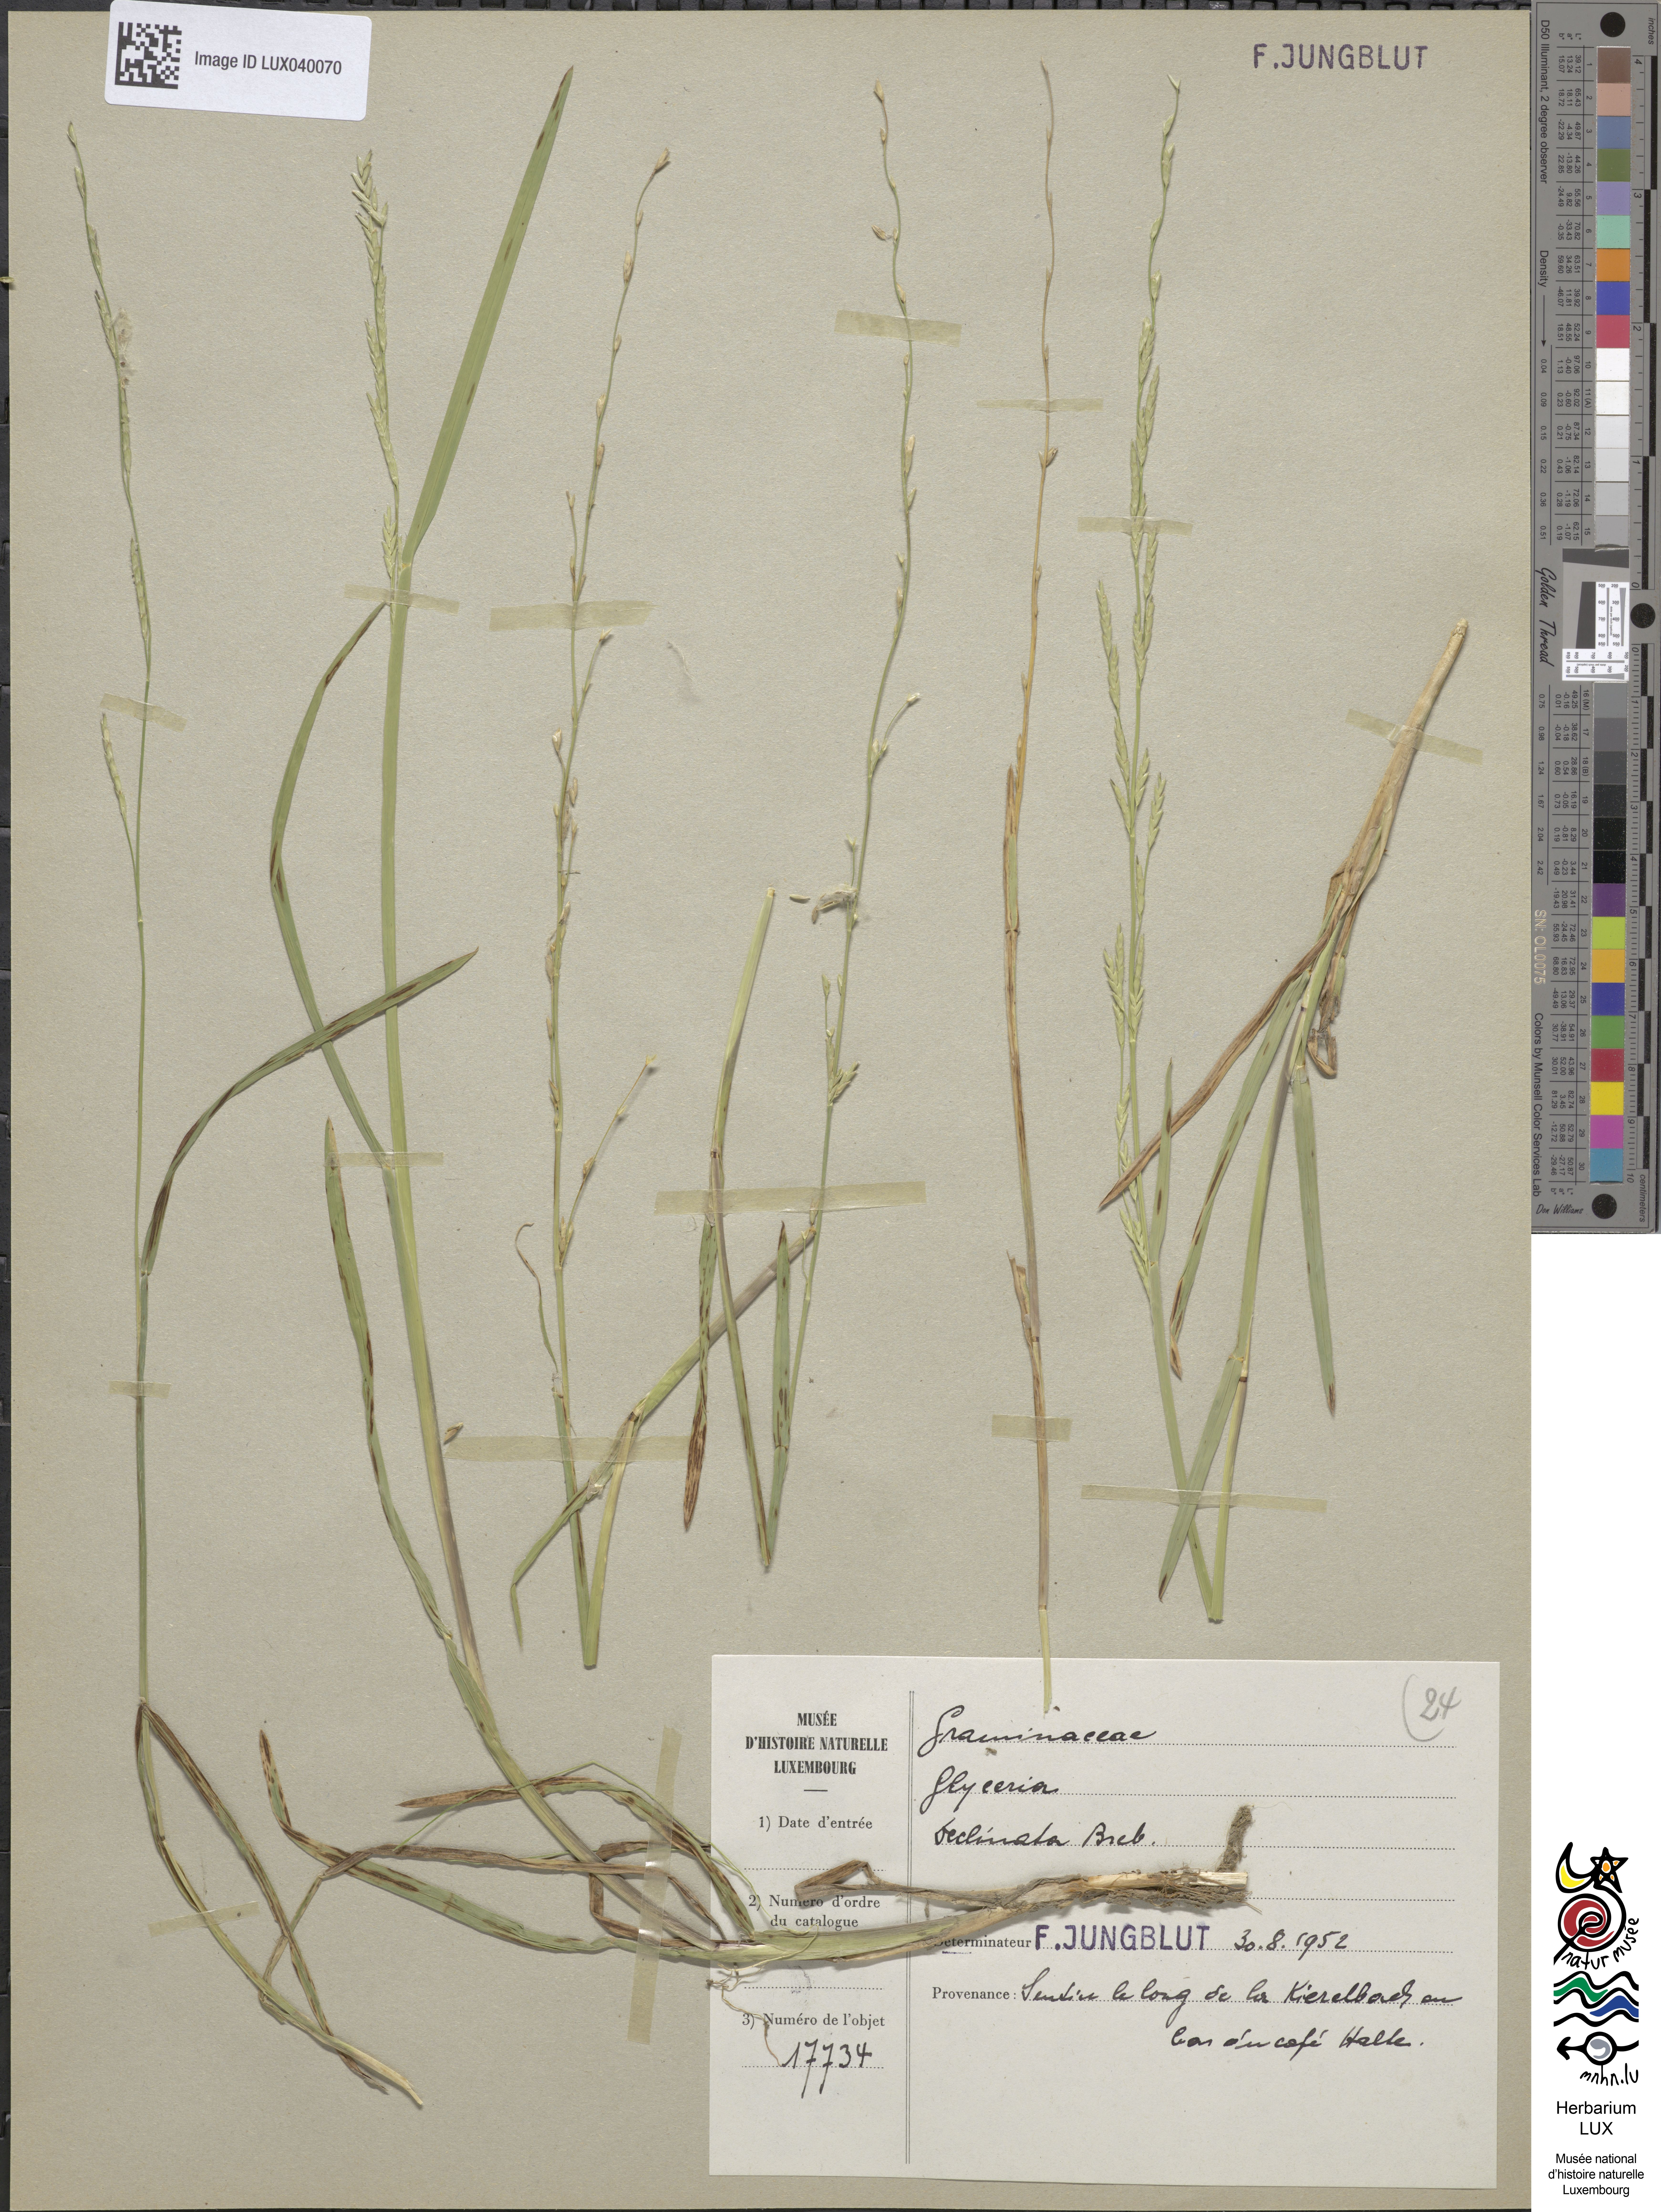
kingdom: Plantae
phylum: Tracheophyta
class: Liliopsida
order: Poales
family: Poaceae
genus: Glyceria
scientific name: Glyceria declinata
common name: Small sweet-grass
